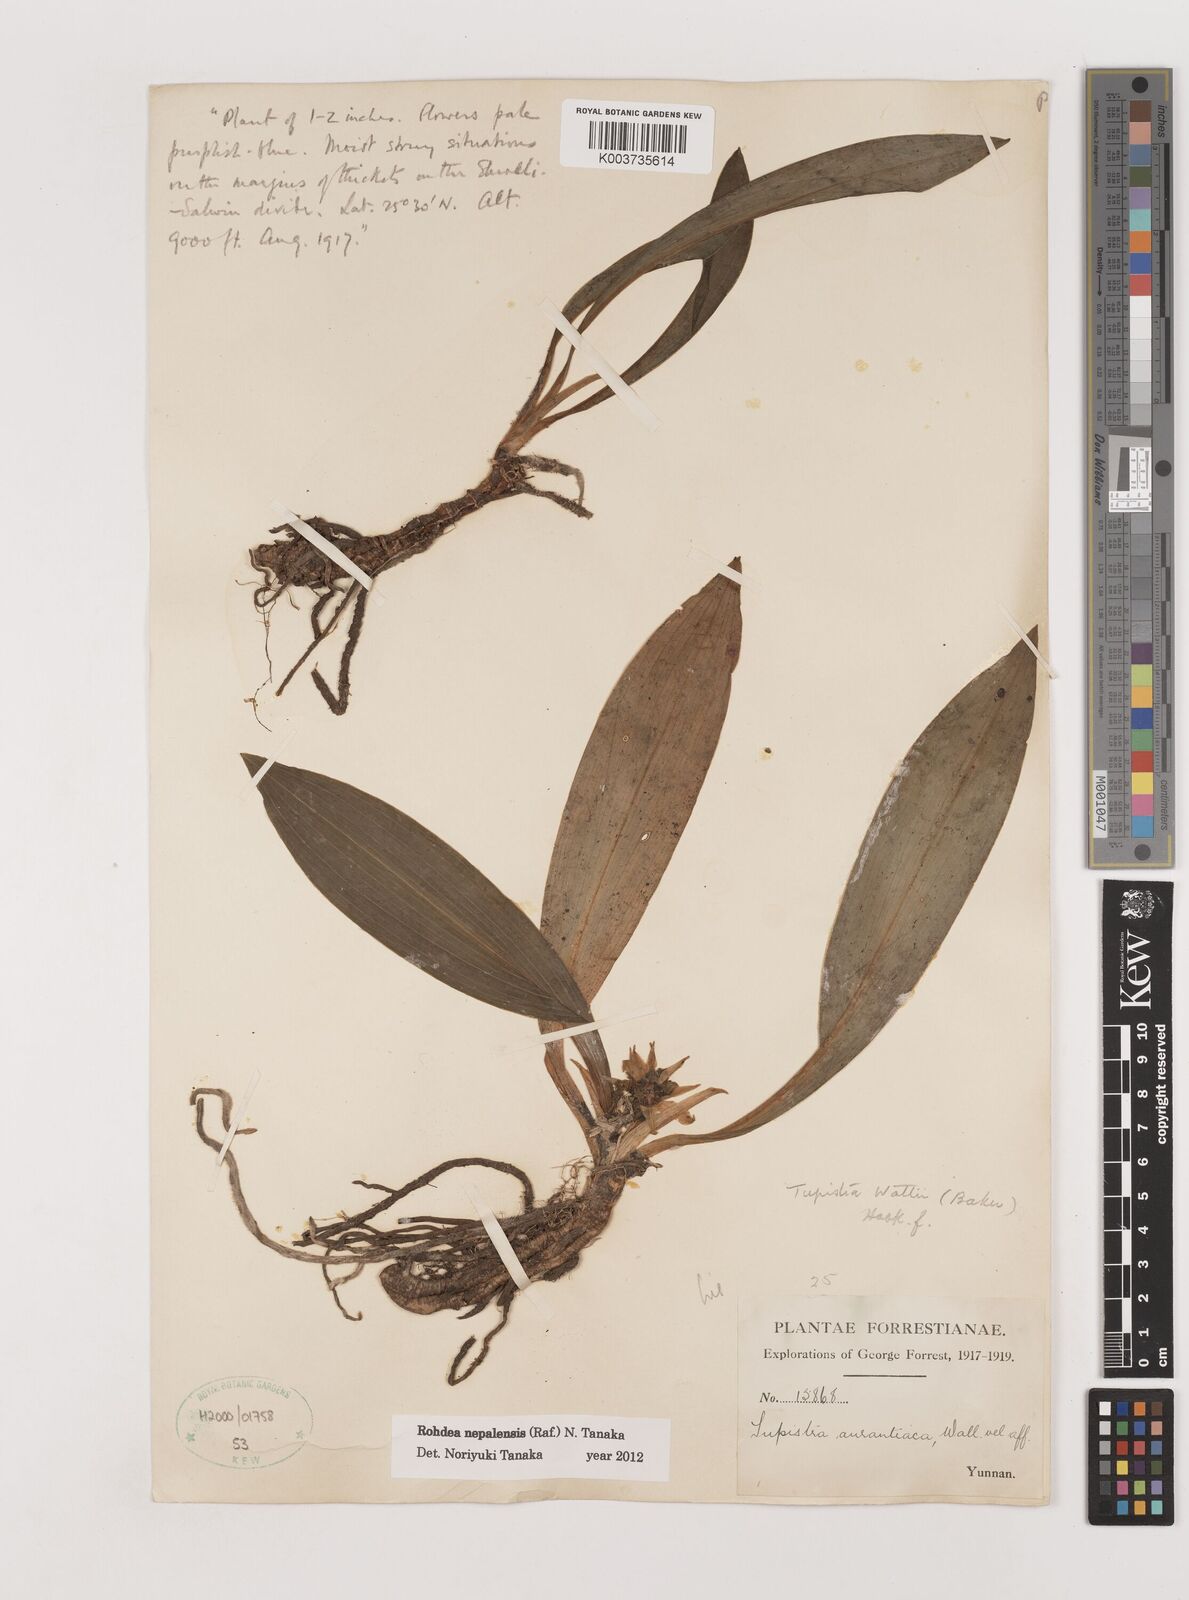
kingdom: Plantae
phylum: Tracheophyta
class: Liliopsida
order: Asparagales
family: Asparagaceae
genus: Rohdea
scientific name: Rohdea nepalensis
